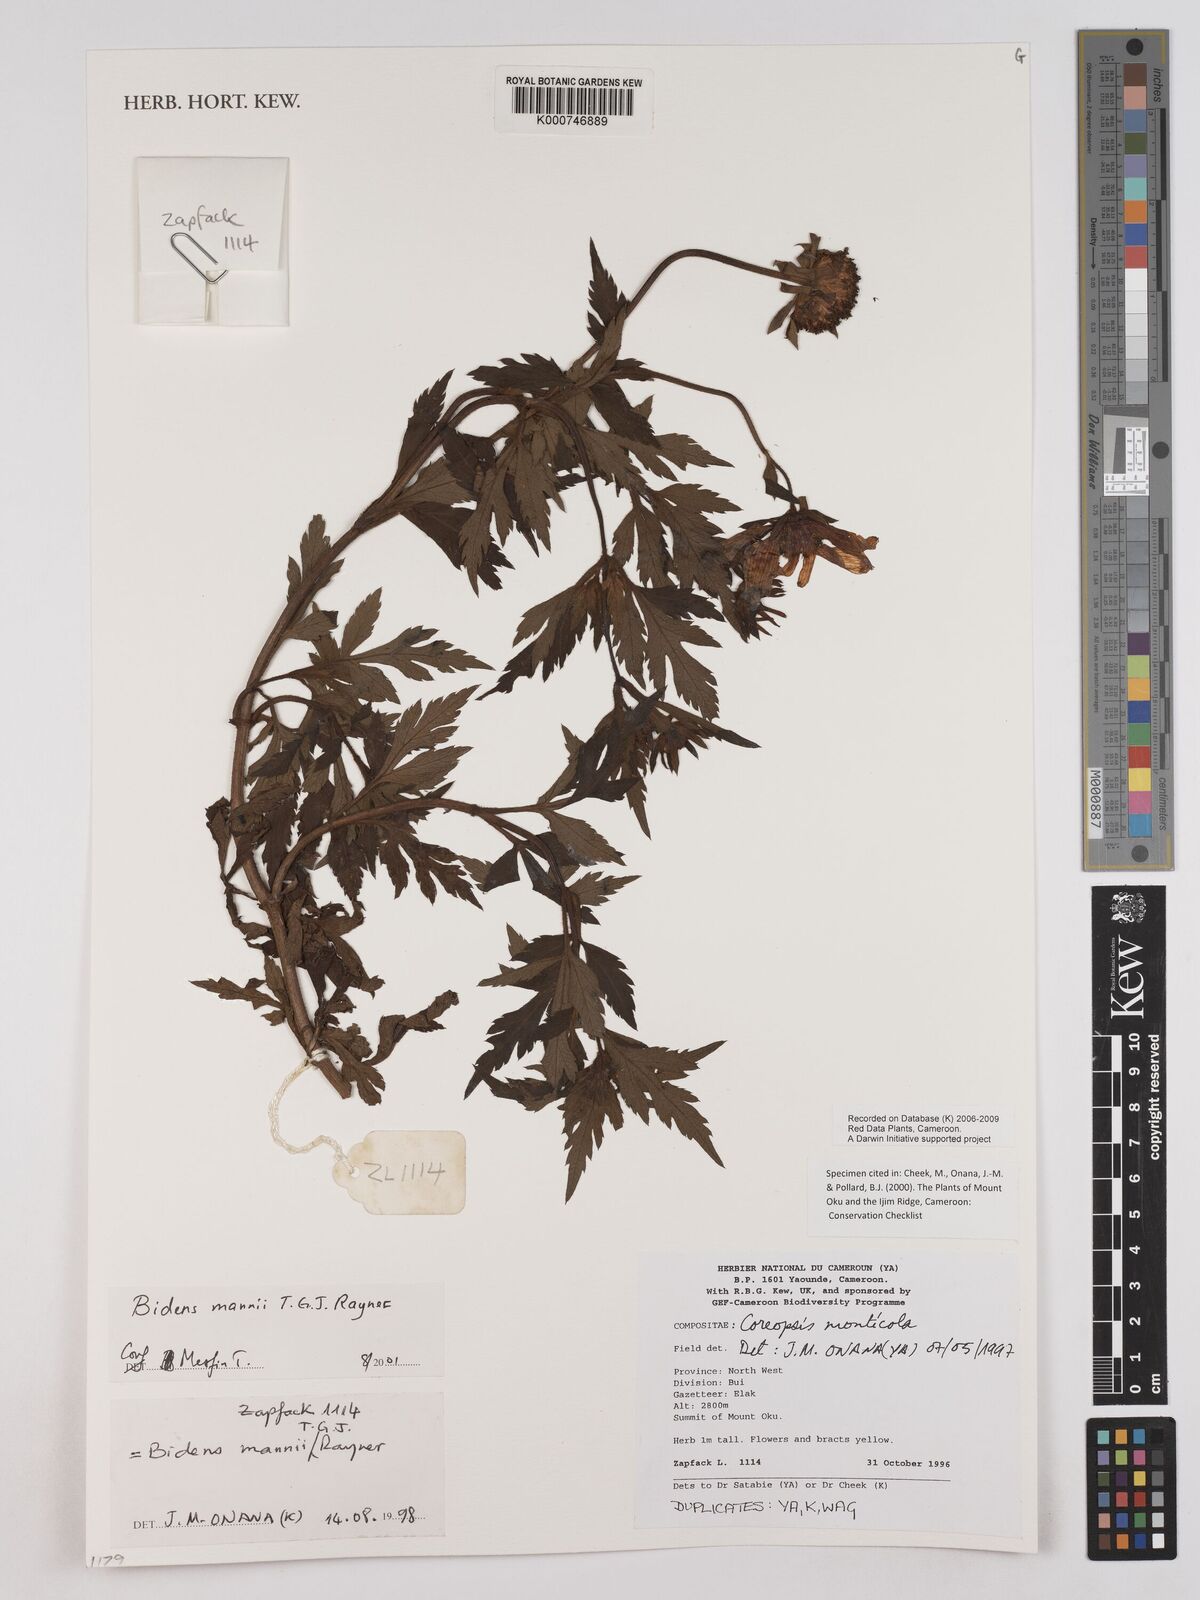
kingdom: Plantae
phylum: Tracheophyta
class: Magnoliopsida
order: Asterales
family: Asteraceae
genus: Bidens
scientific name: Bidens mannii
